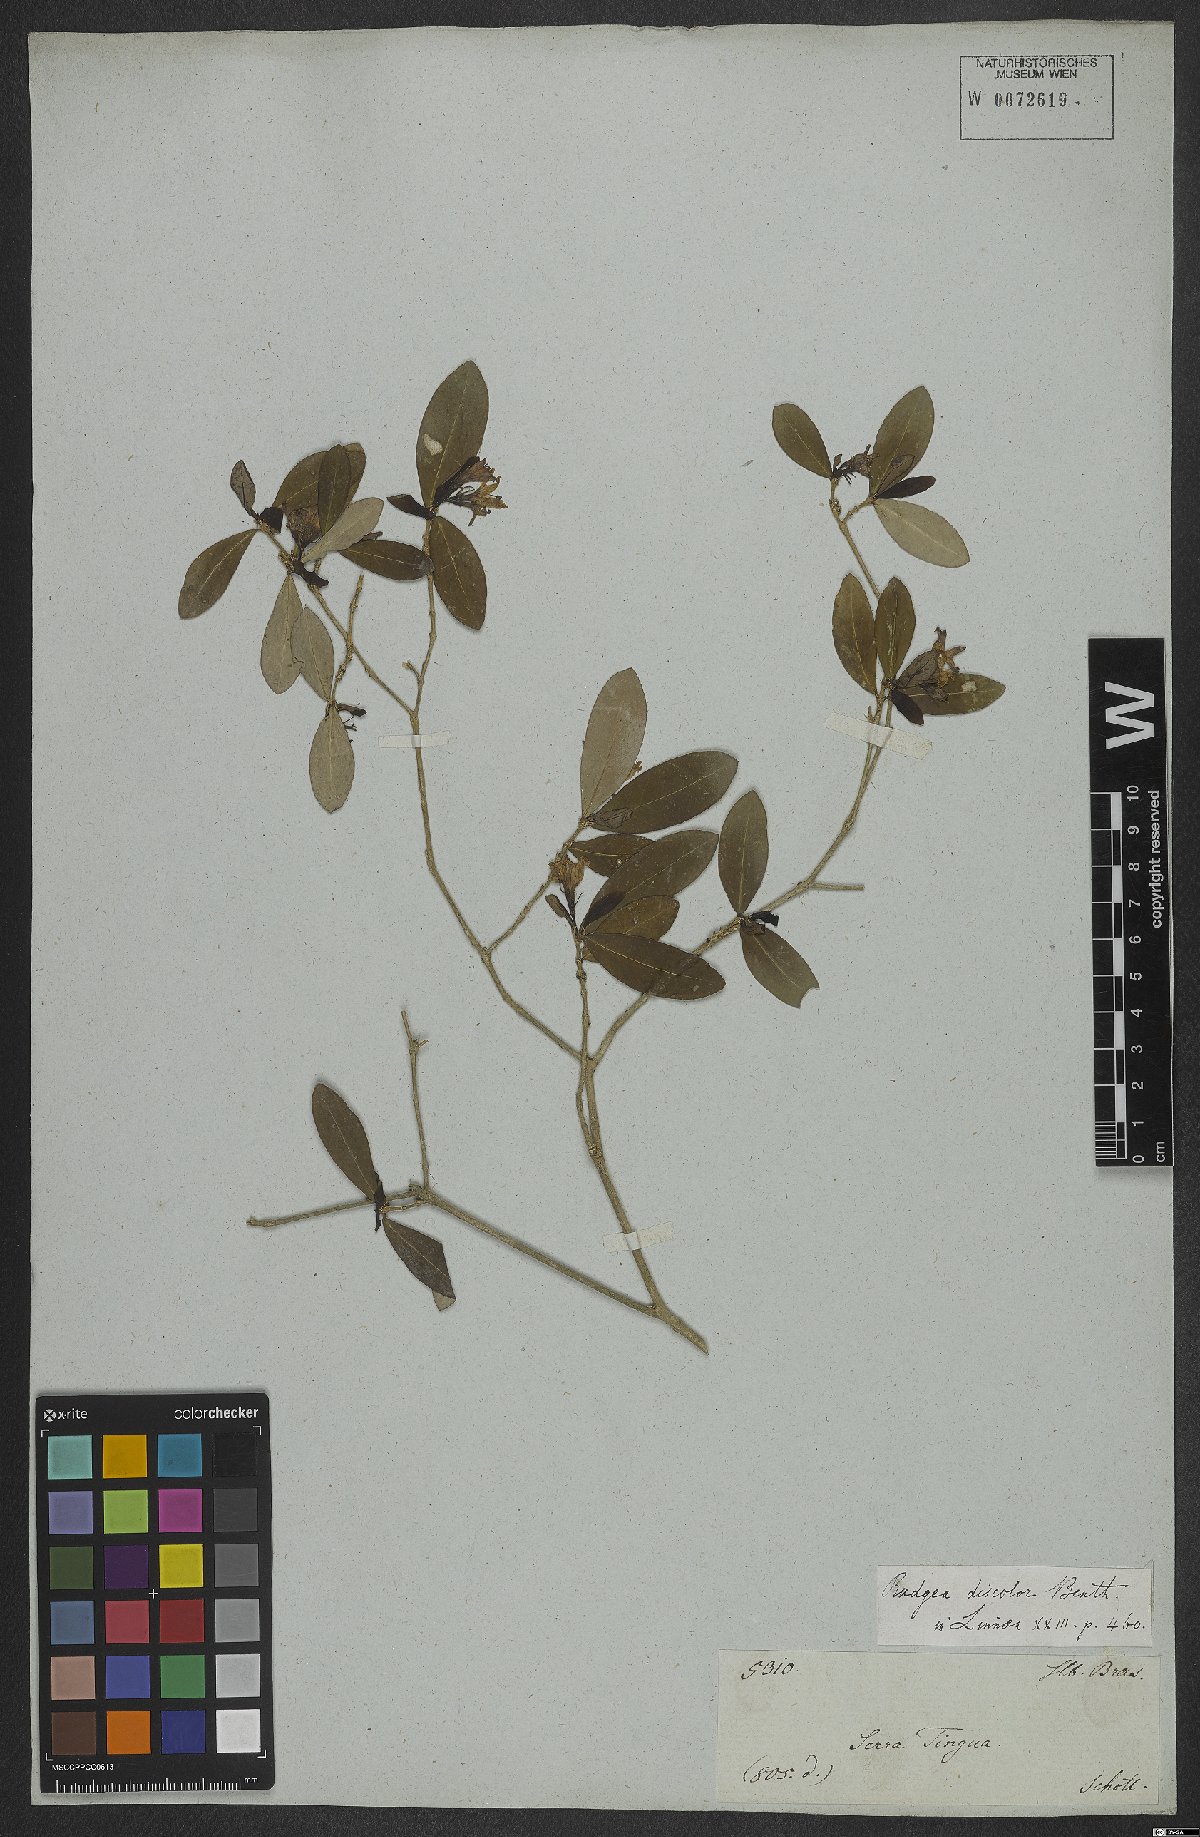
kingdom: Plantae
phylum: Tracheophyta
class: Magnoliopsida
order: Gentianales
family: Rubiaceae
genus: Rudgea
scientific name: Rudgea discolor
